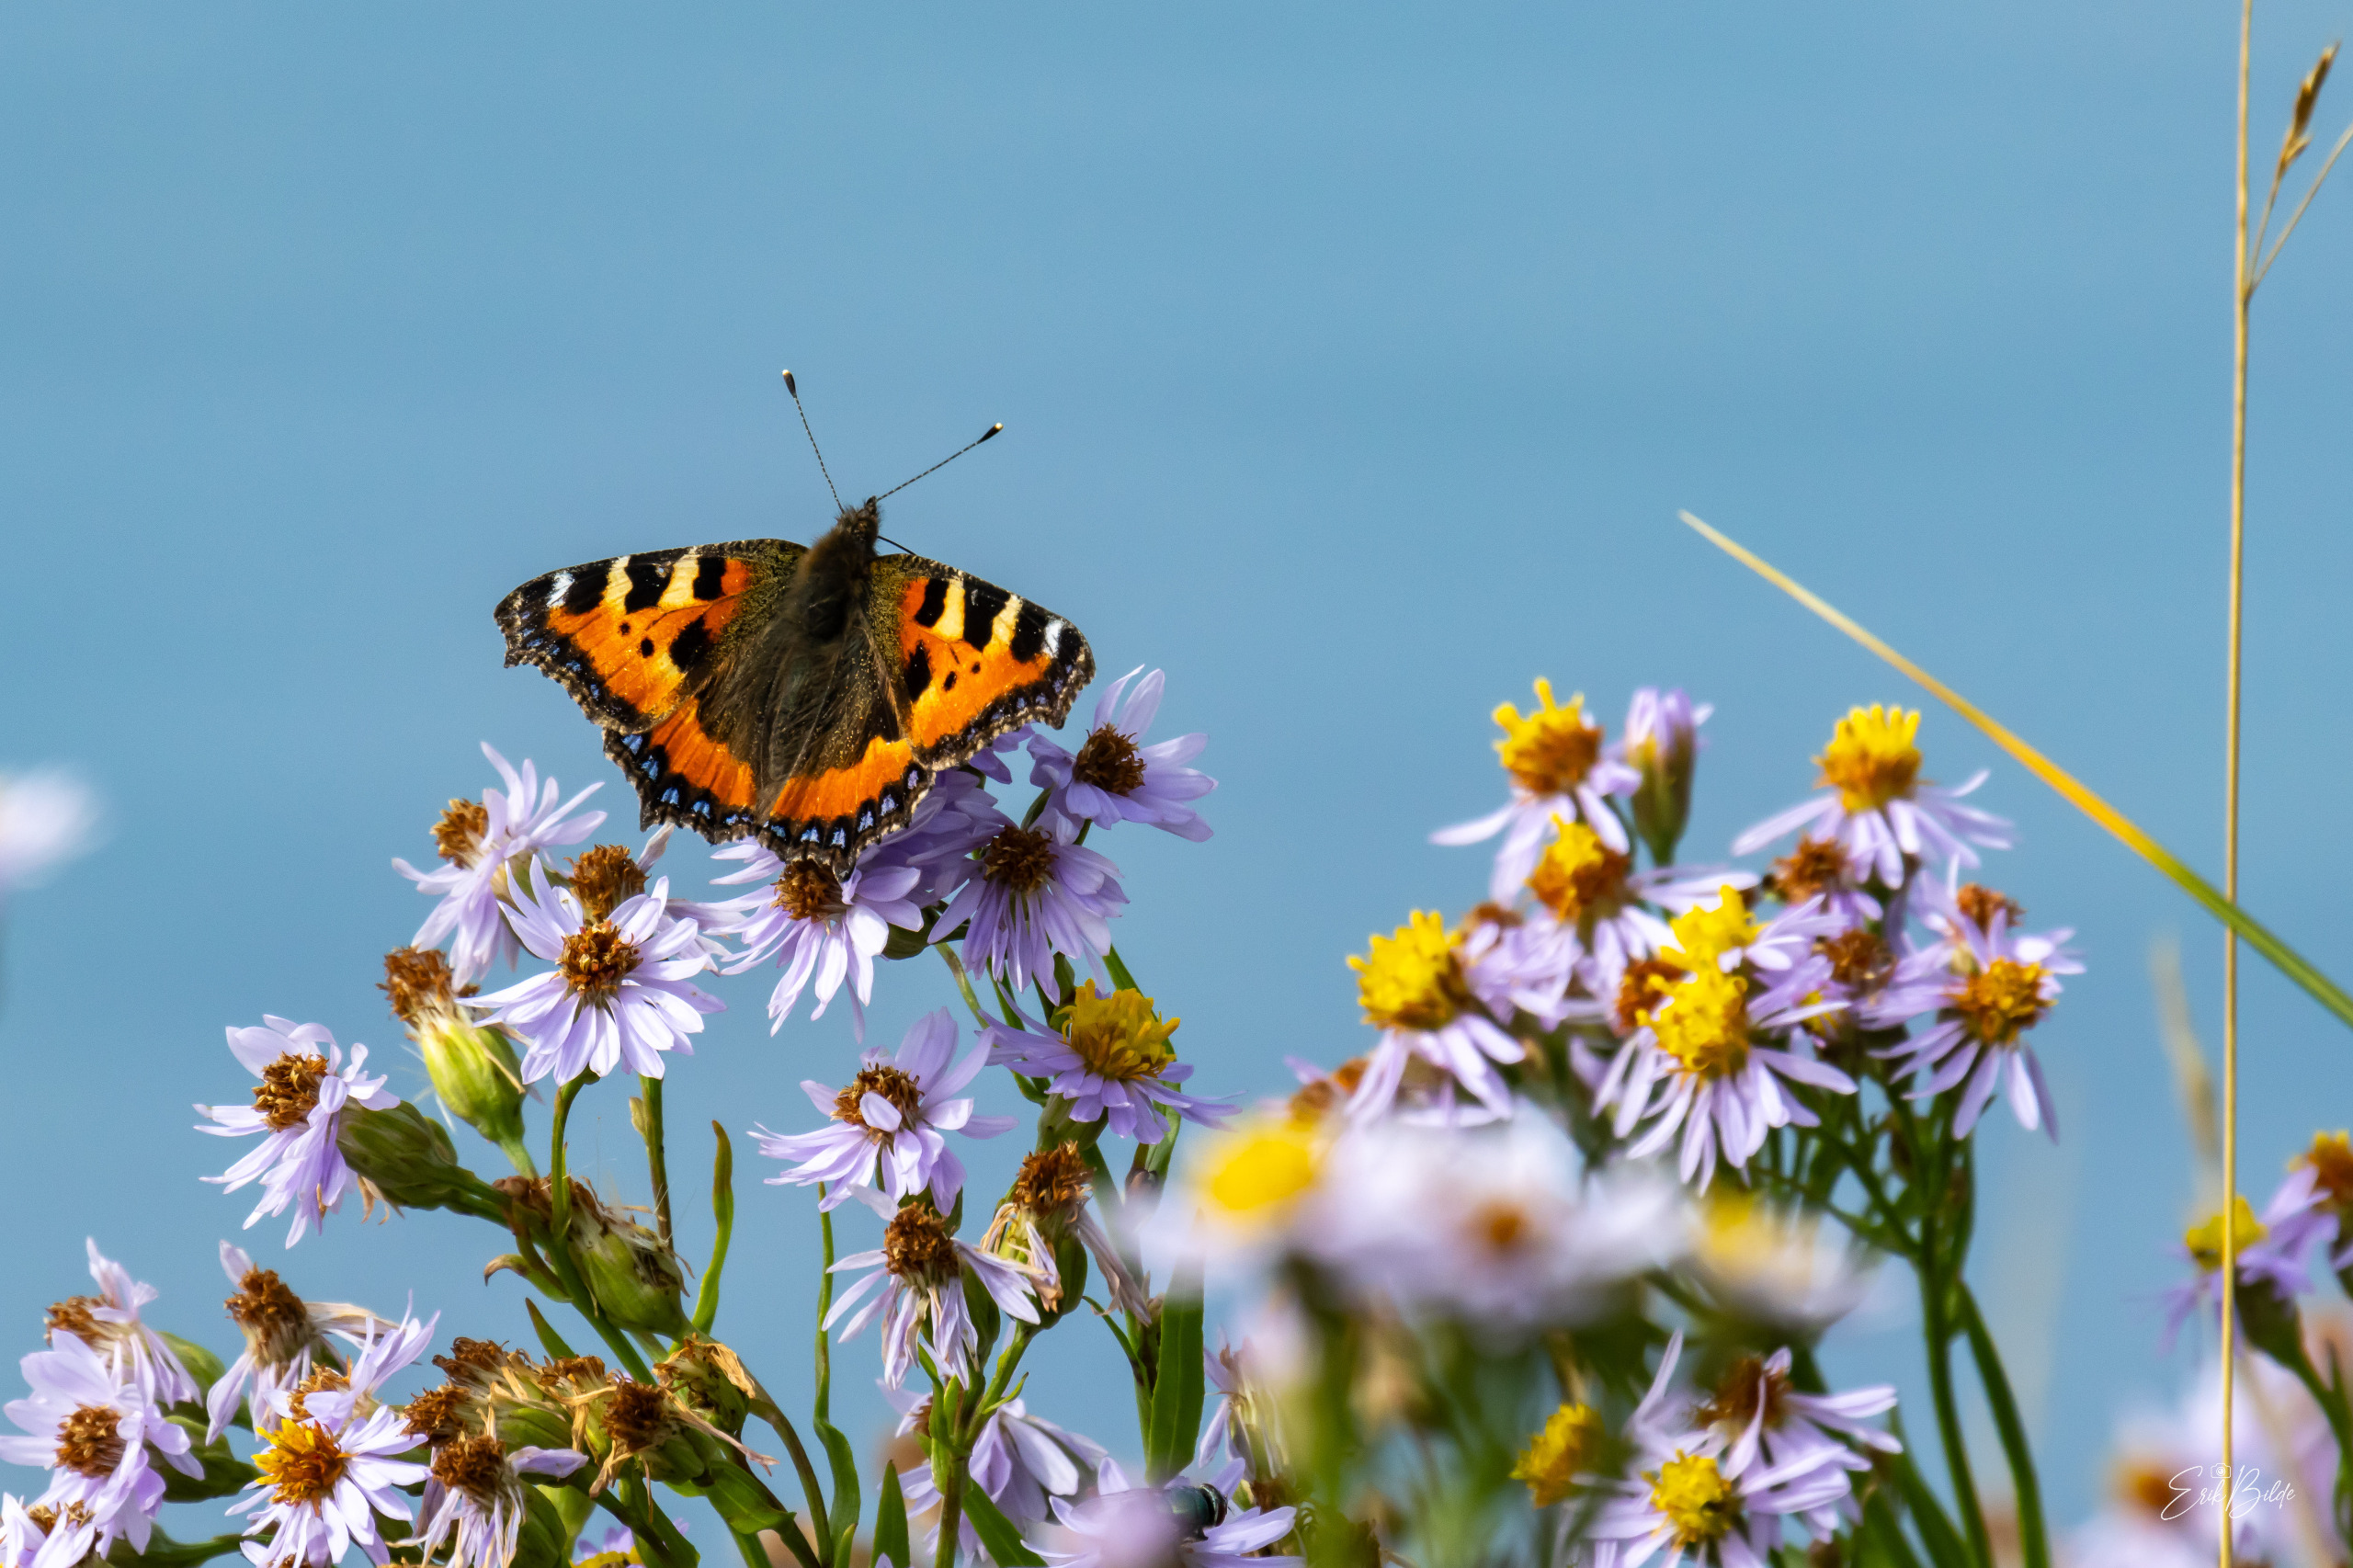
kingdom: Animalia
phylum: Arthropoda
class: Insecta
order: Lepidoptera
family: Nymphalidae
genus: Aglais
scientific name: Aglais urticae
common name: Nældens takvinge
